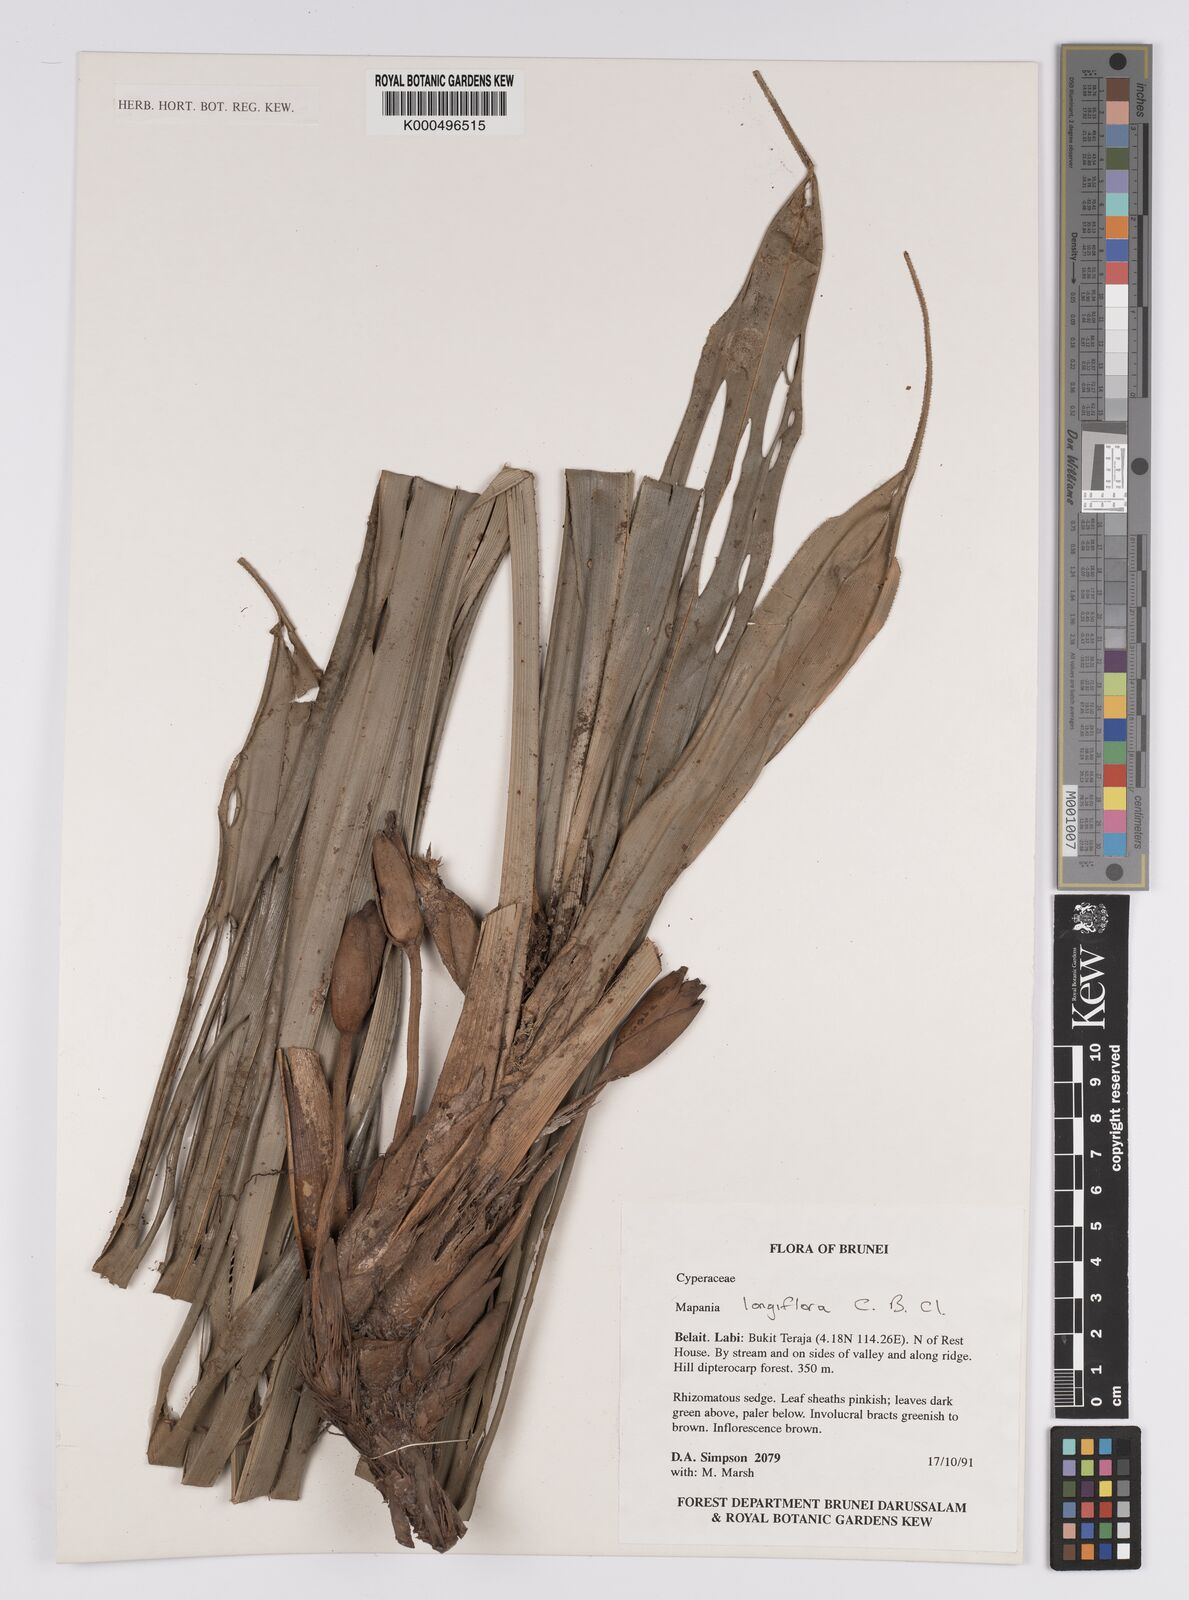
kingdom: Plantae
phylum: Tracheophyta
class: Liliopsida
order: Poales
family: Cyperaceae
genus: Mapania
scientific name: Mapania longiflora
